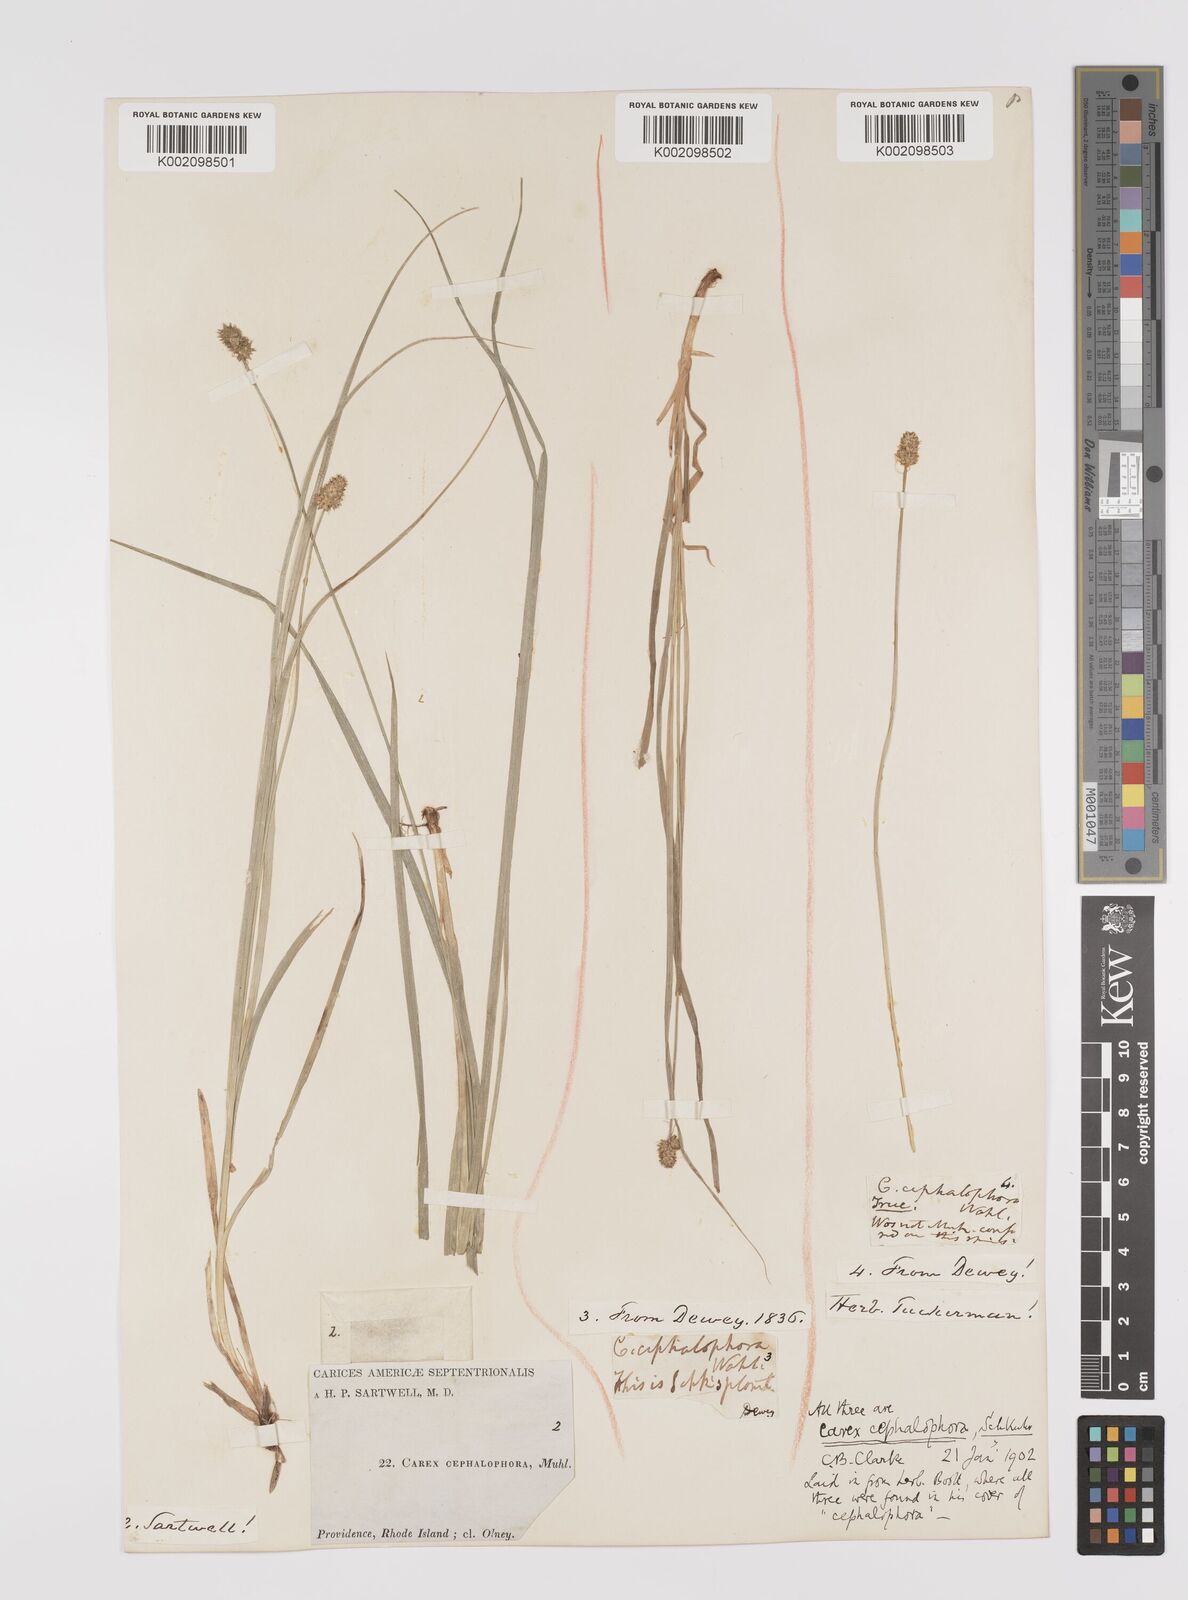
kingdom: Plantae
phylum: Tracheophyta
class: Liliopsida
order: Poales
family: Cyperaceae
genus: Carex
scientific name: Carex cephalophora
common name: Oval-headed sedge
